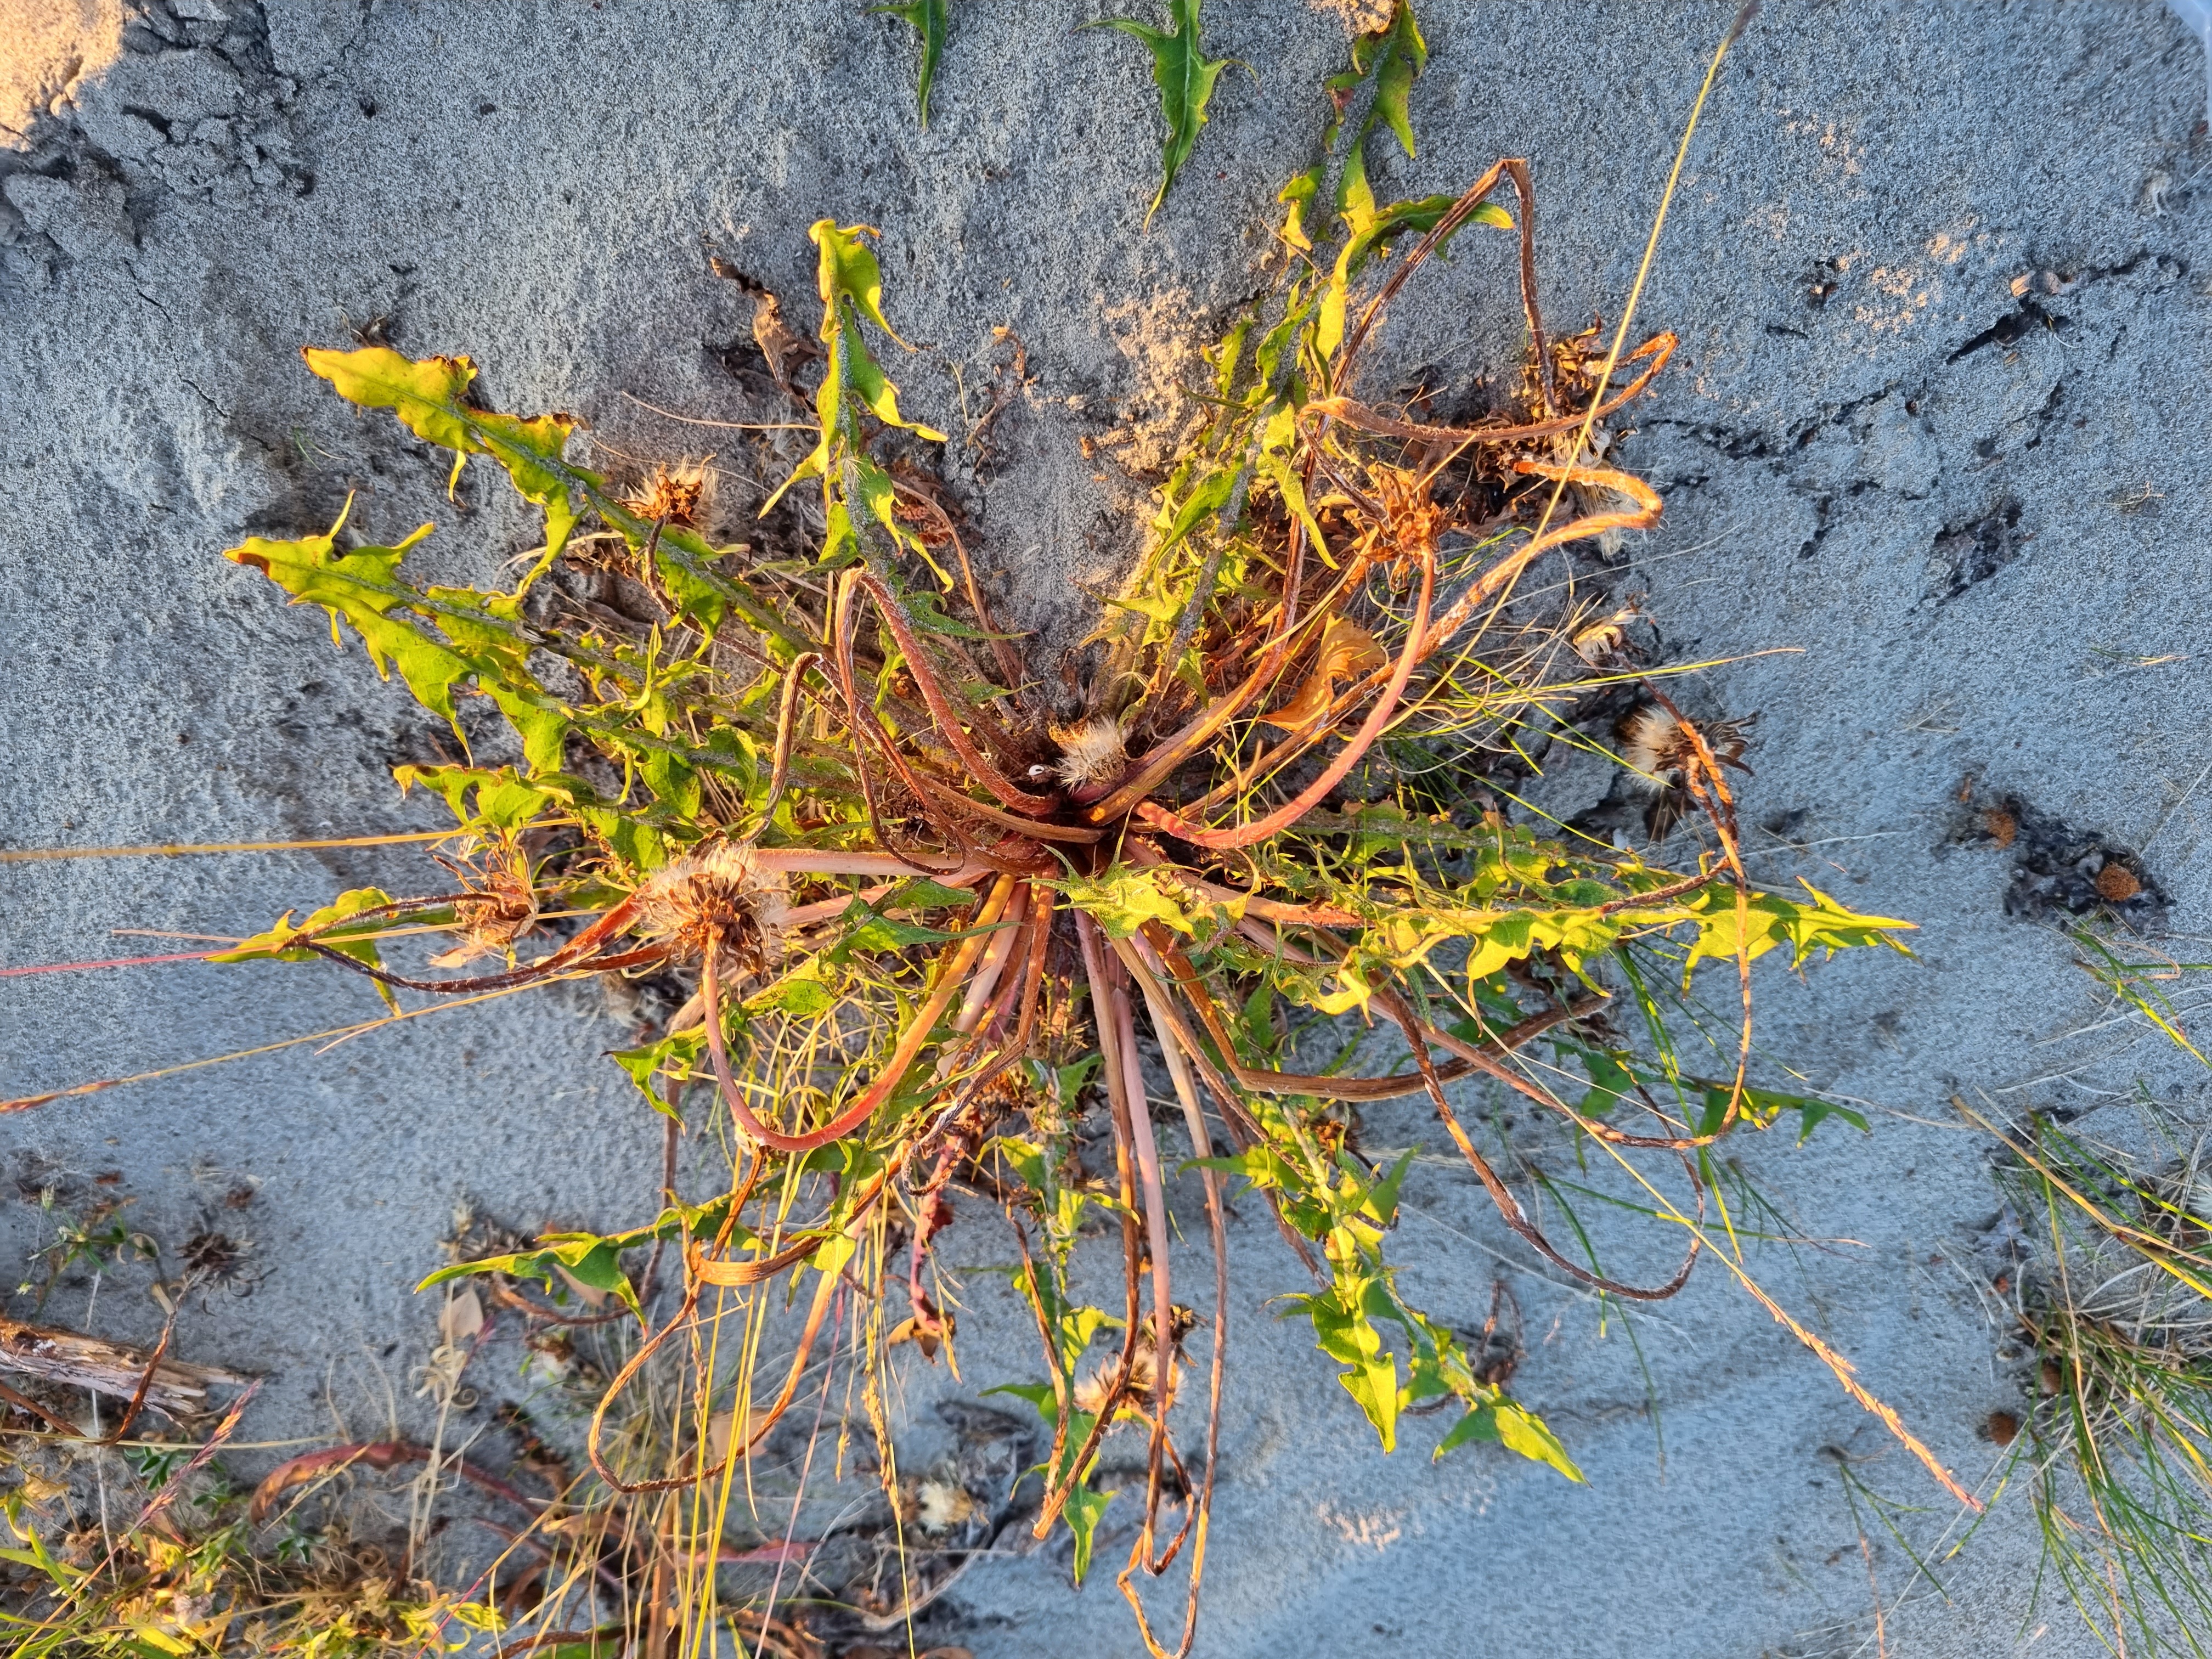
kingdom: Plantae
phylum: Tracheophyta
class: Magnoliopsida
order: Asterales
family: Asteraceae
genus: Taraxacum
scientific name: Taraxacum norvegicum
